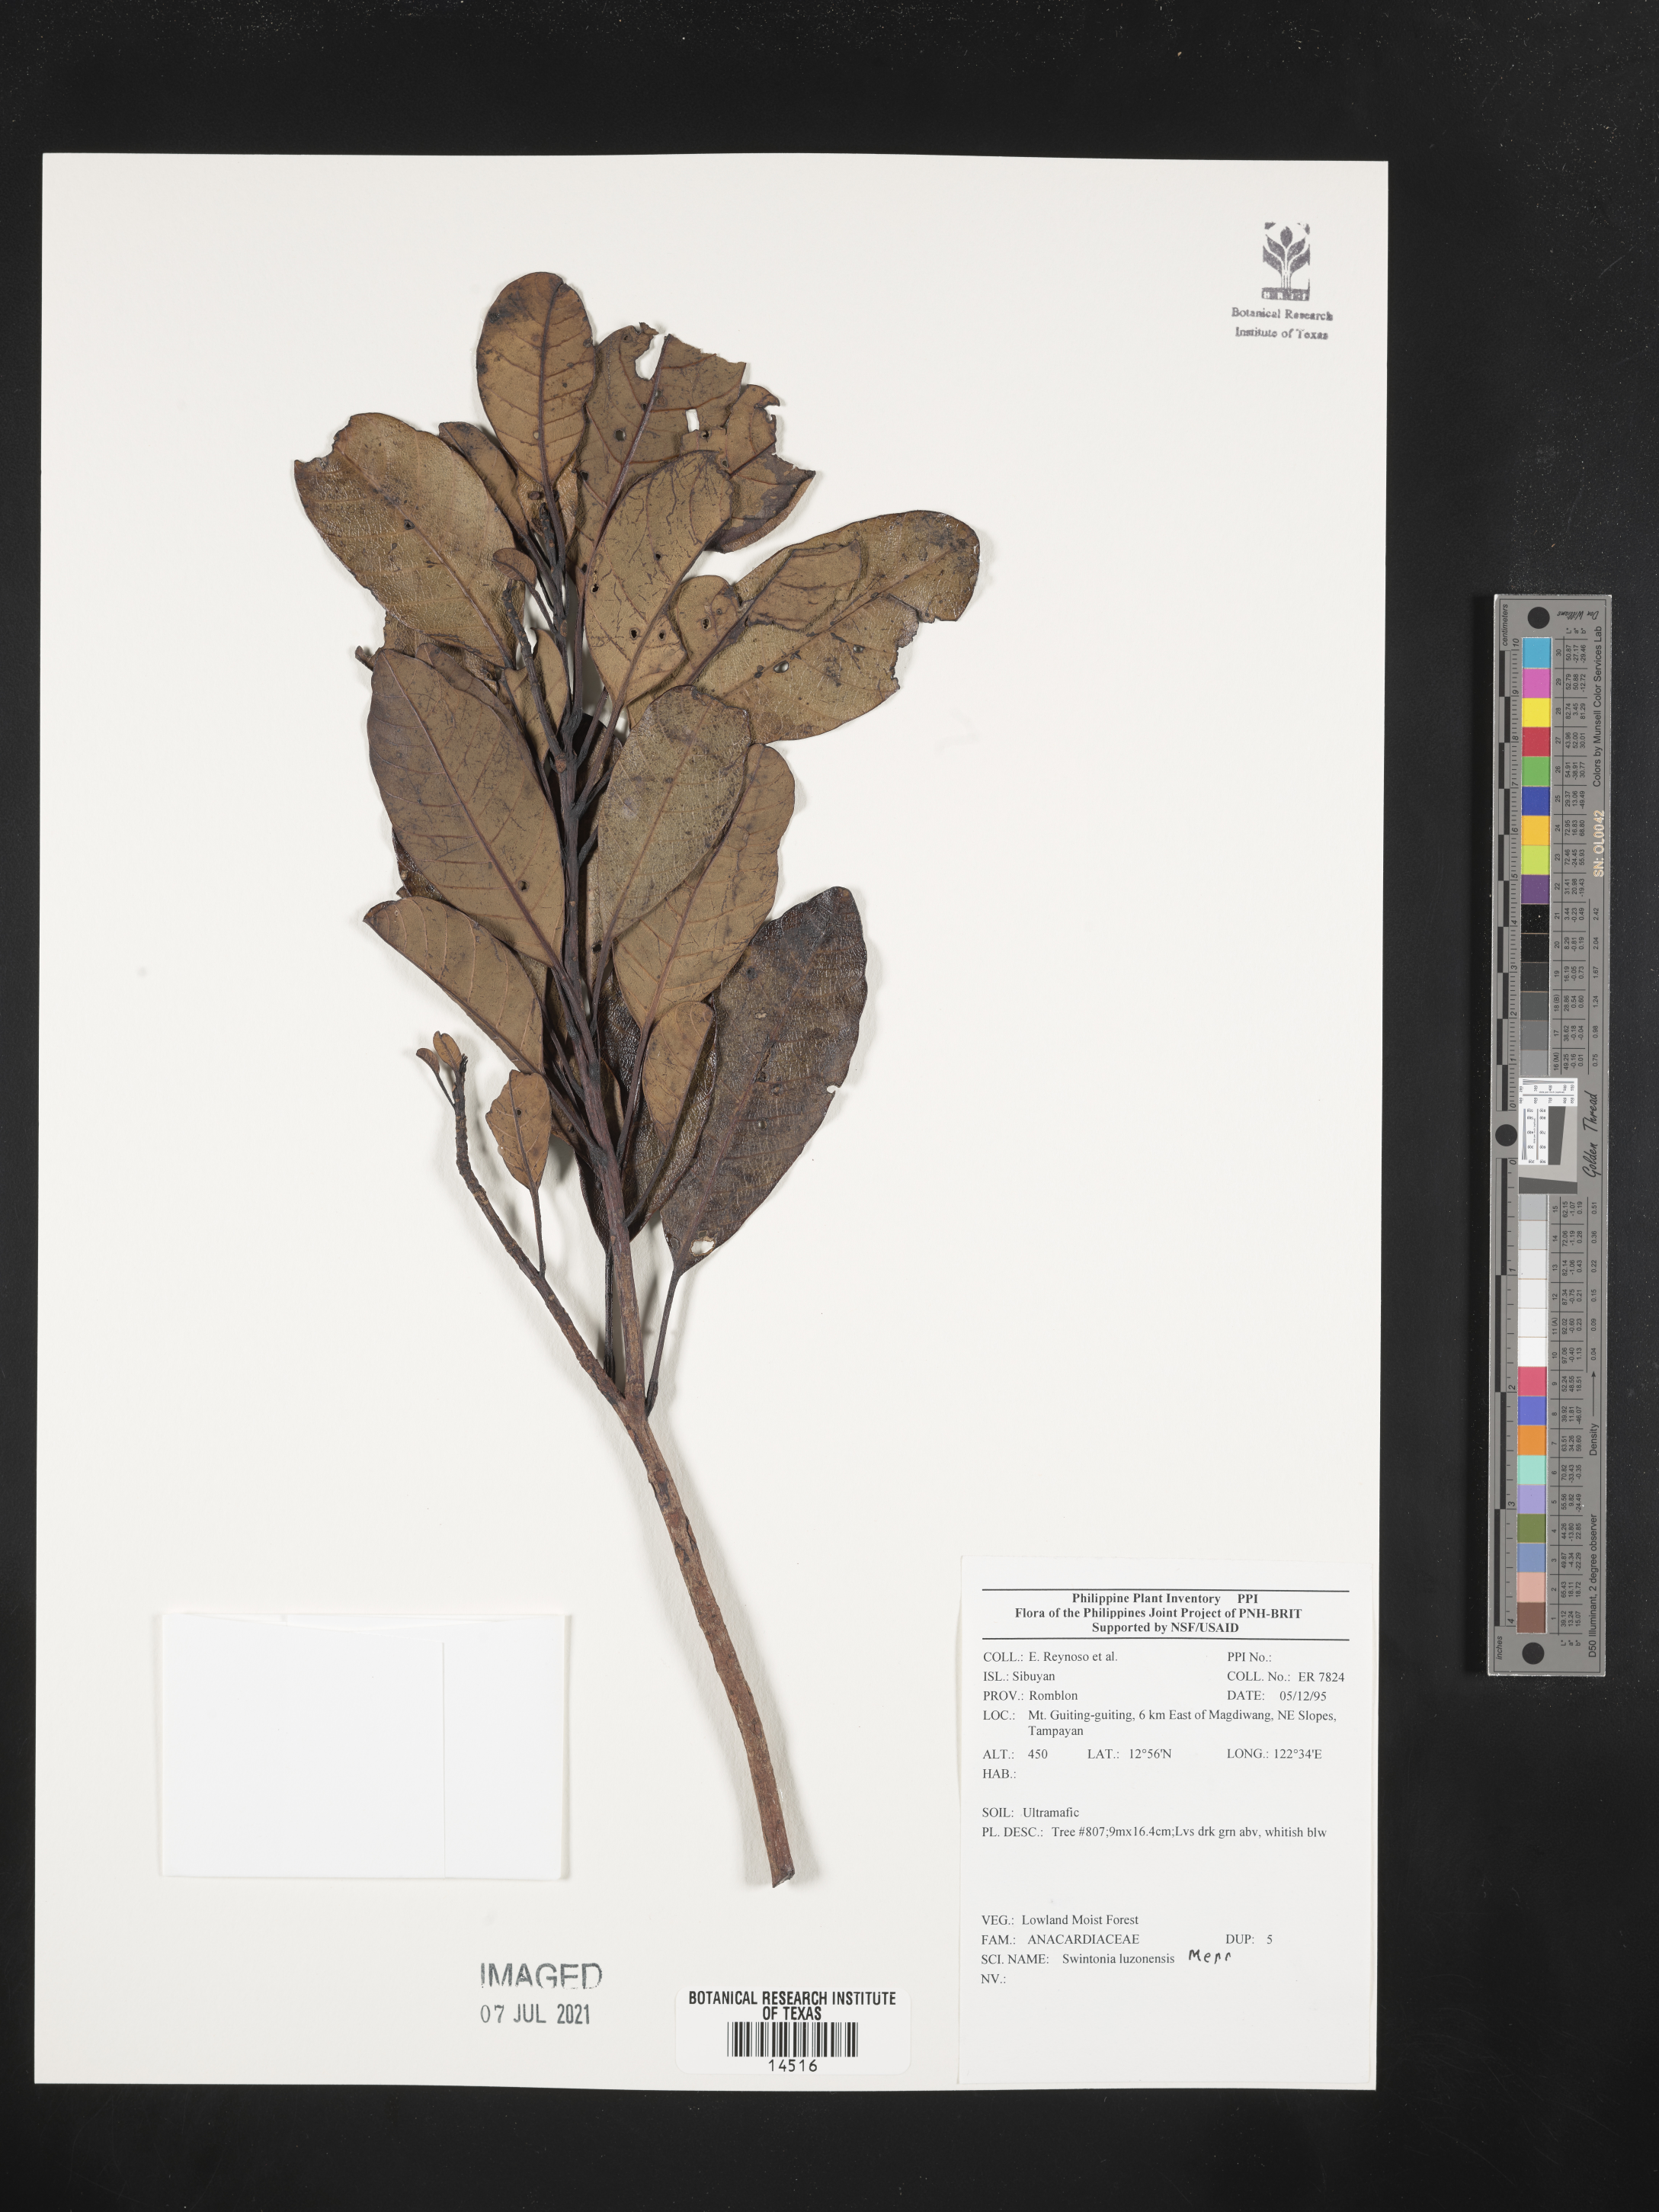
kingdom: Plantae
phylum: Tracheophyta
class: Magnoliopsida
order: Sapindales
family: Anacardiaceae
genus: Swintonia
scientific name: Swintonia acuta
